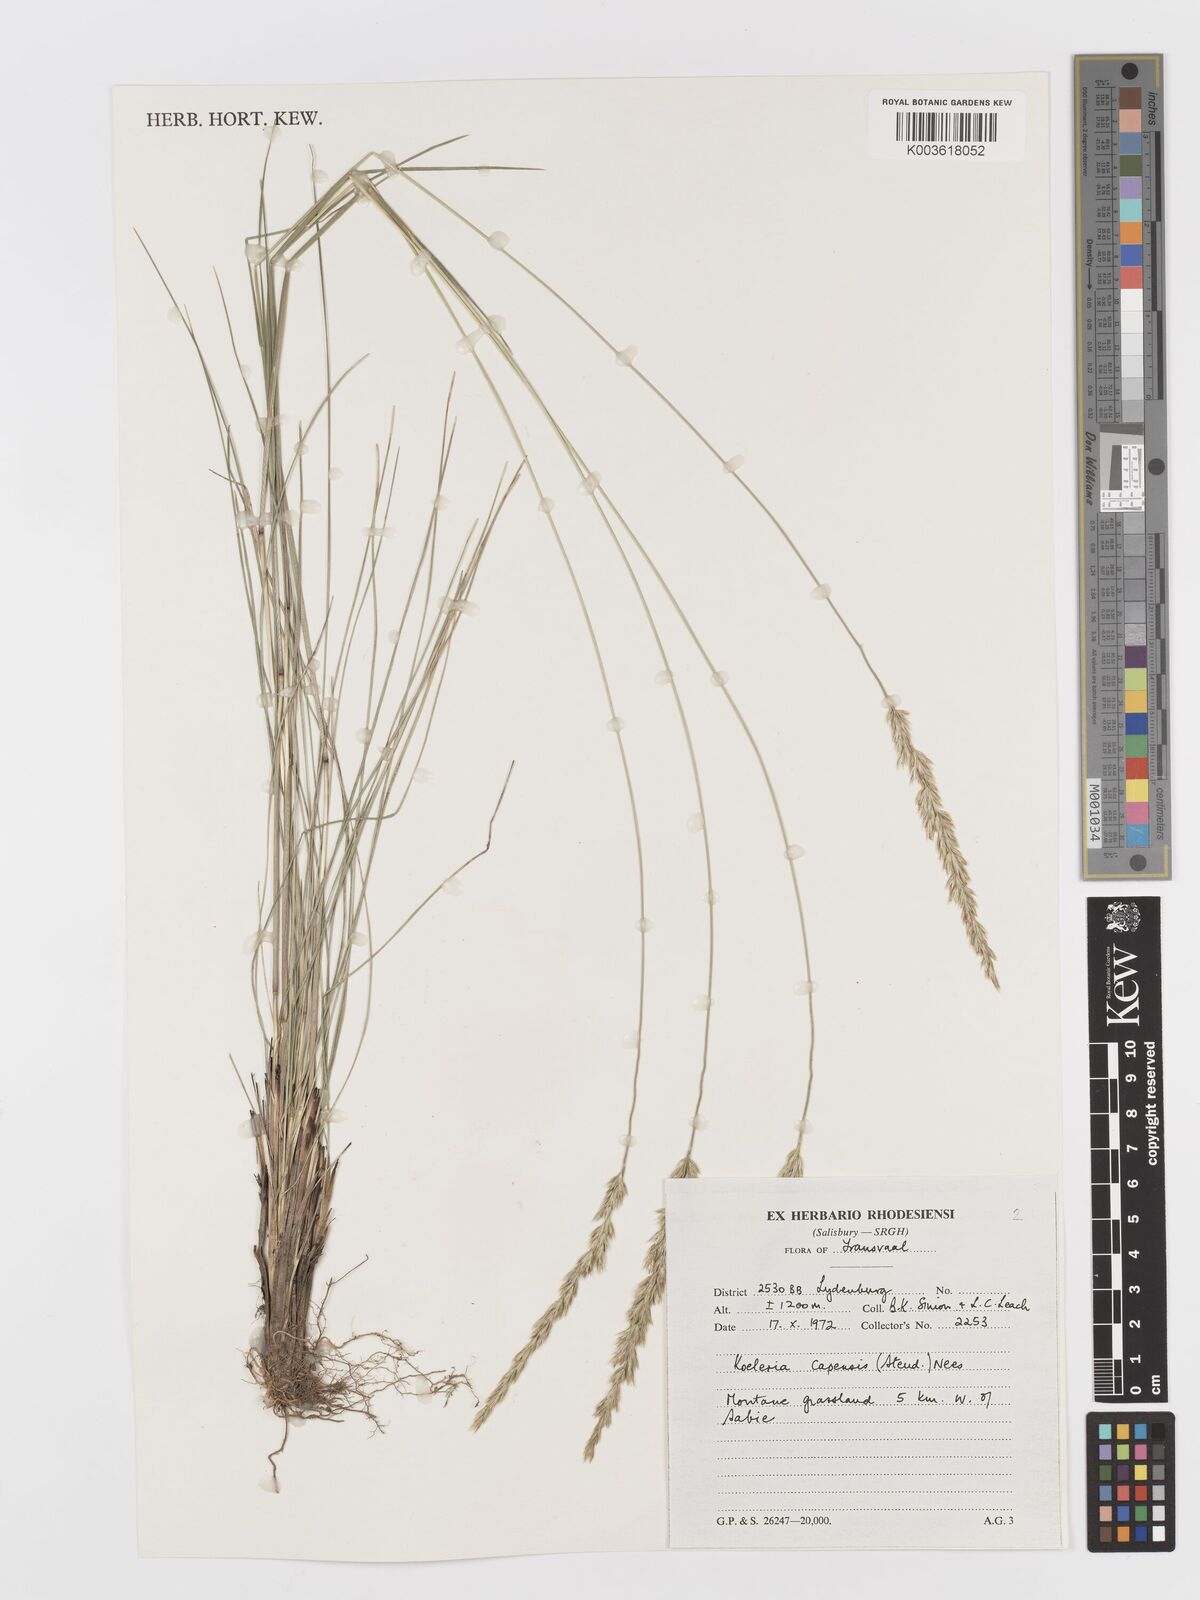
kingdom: Plantae
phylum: Tracheophyta
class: Liliopsida
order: Poales
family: Poaceae
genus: Koeleria
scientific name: Koeleria capensis
